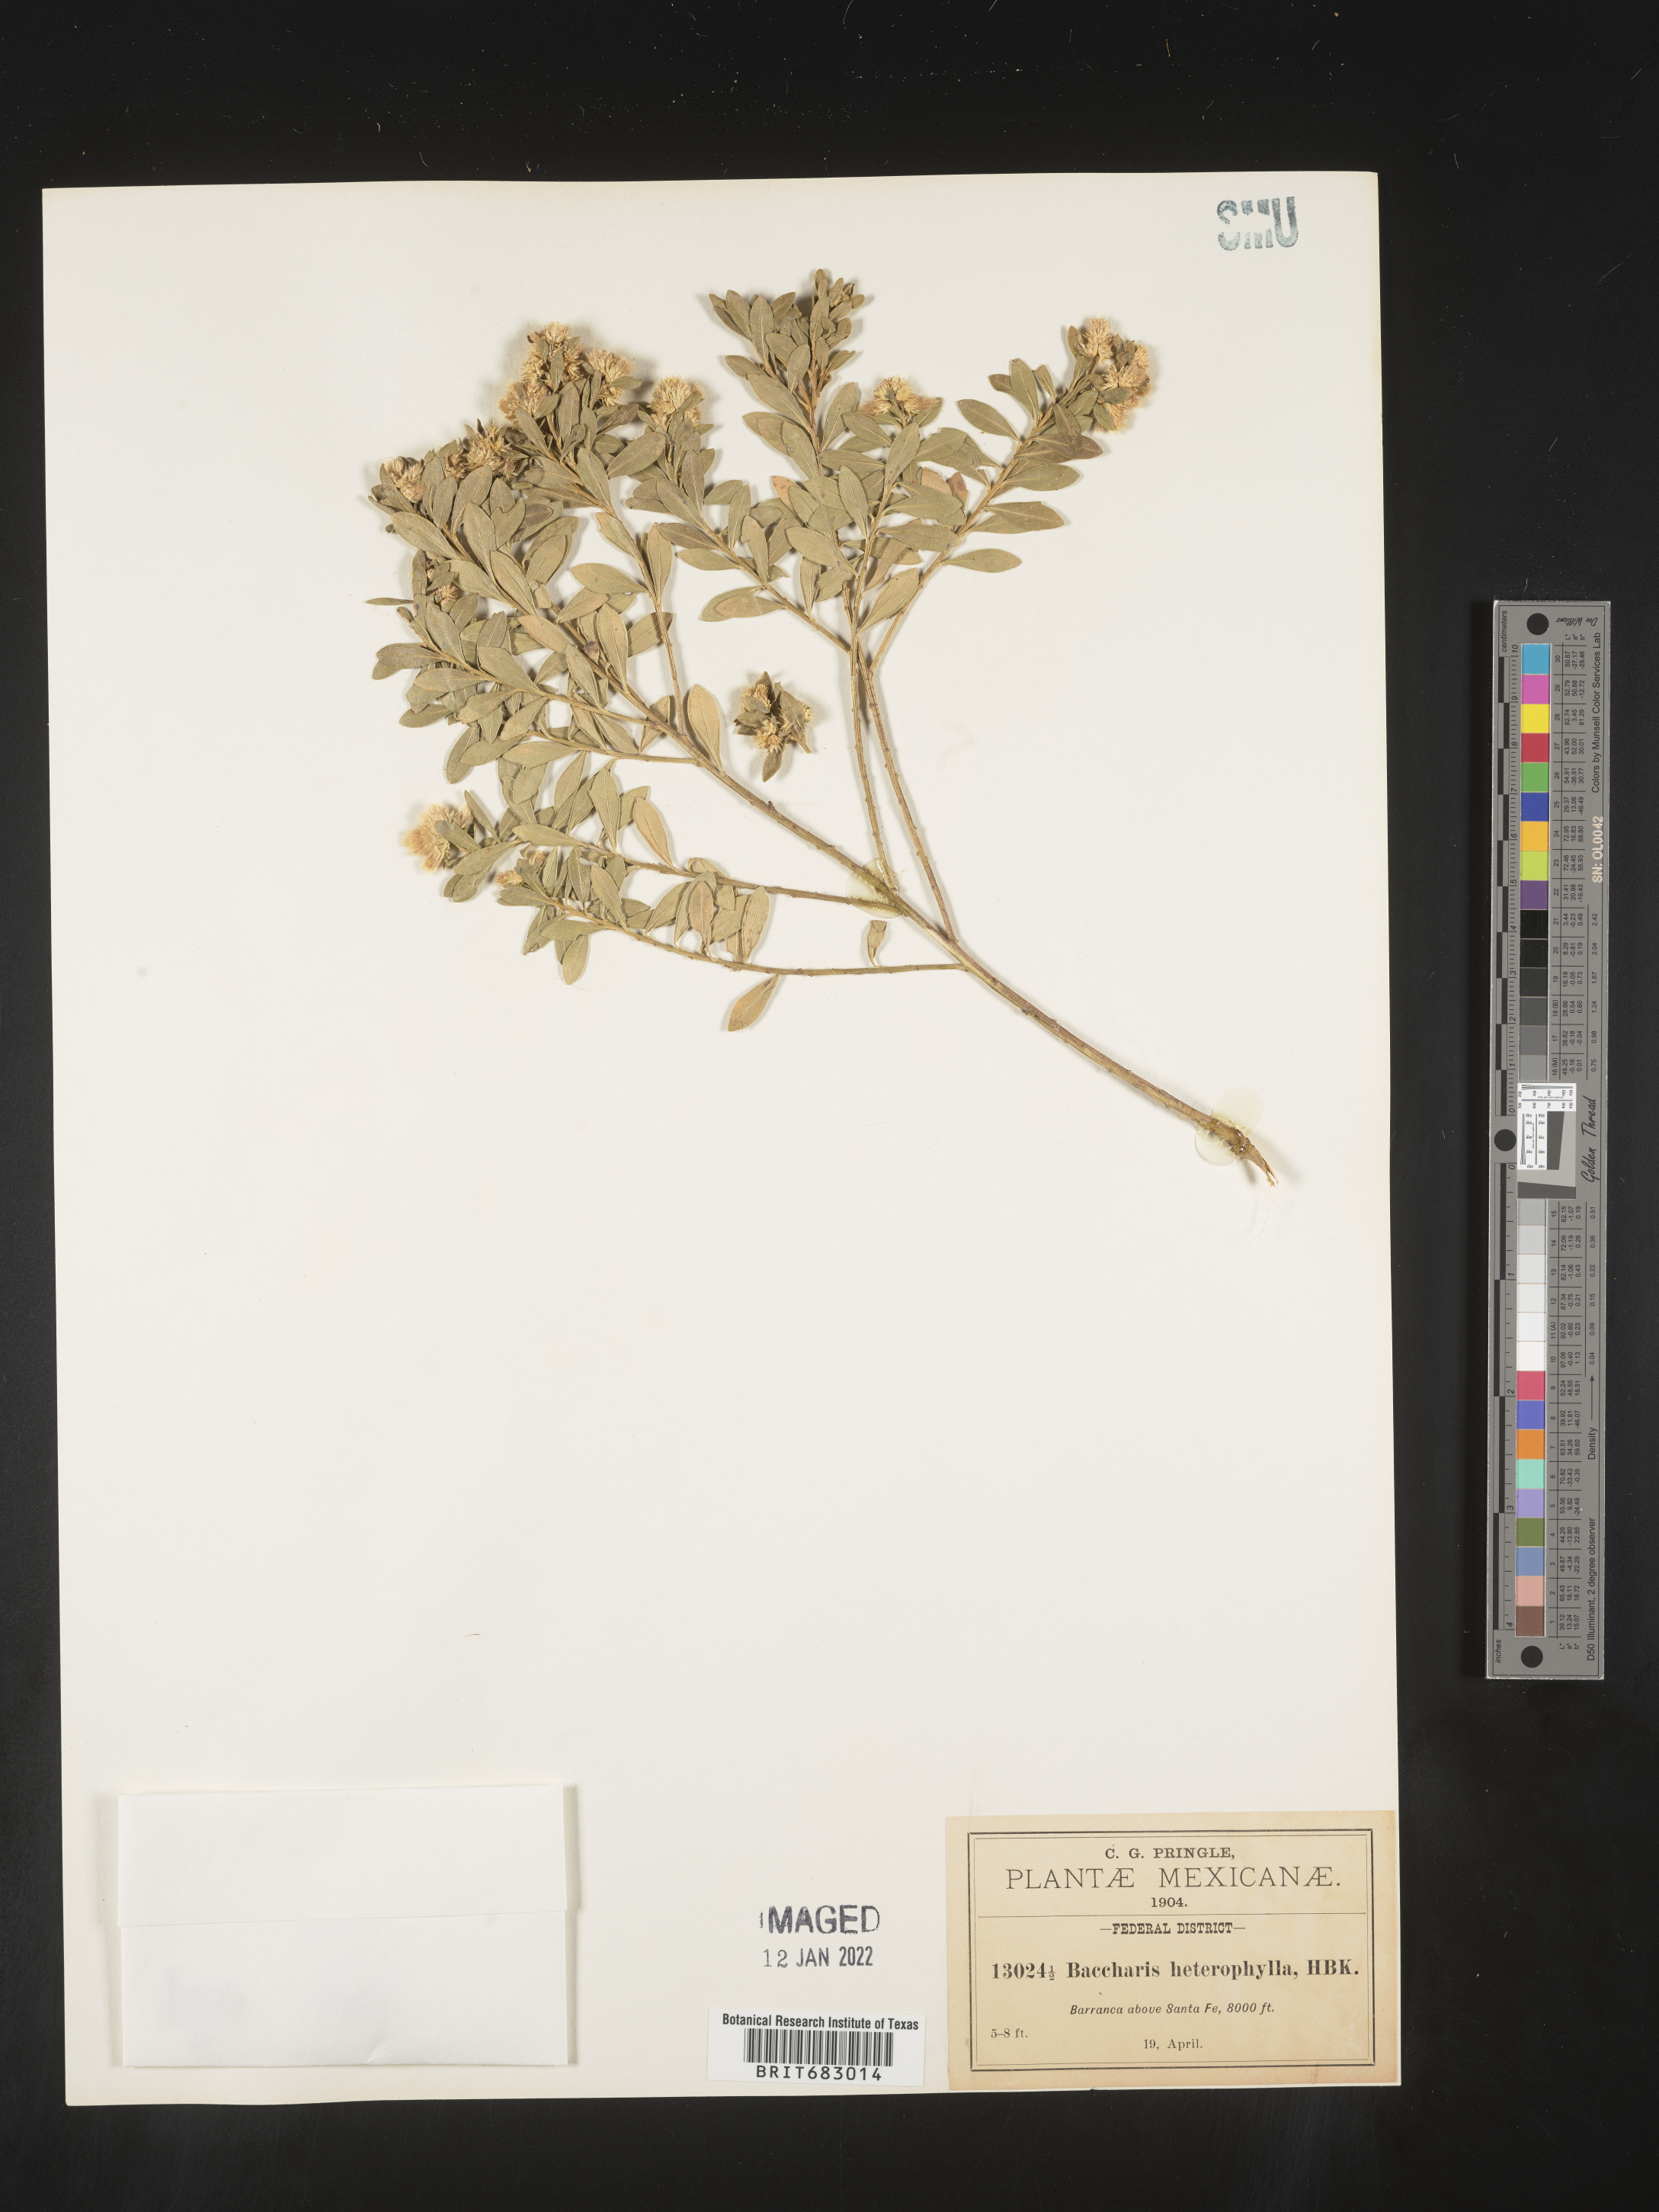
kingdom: Plantae
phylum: Tracheophyta
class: Magnoliopsida
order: Asterales
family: Asteraceae
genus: Baccharis
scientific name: Baccharis microdonta
